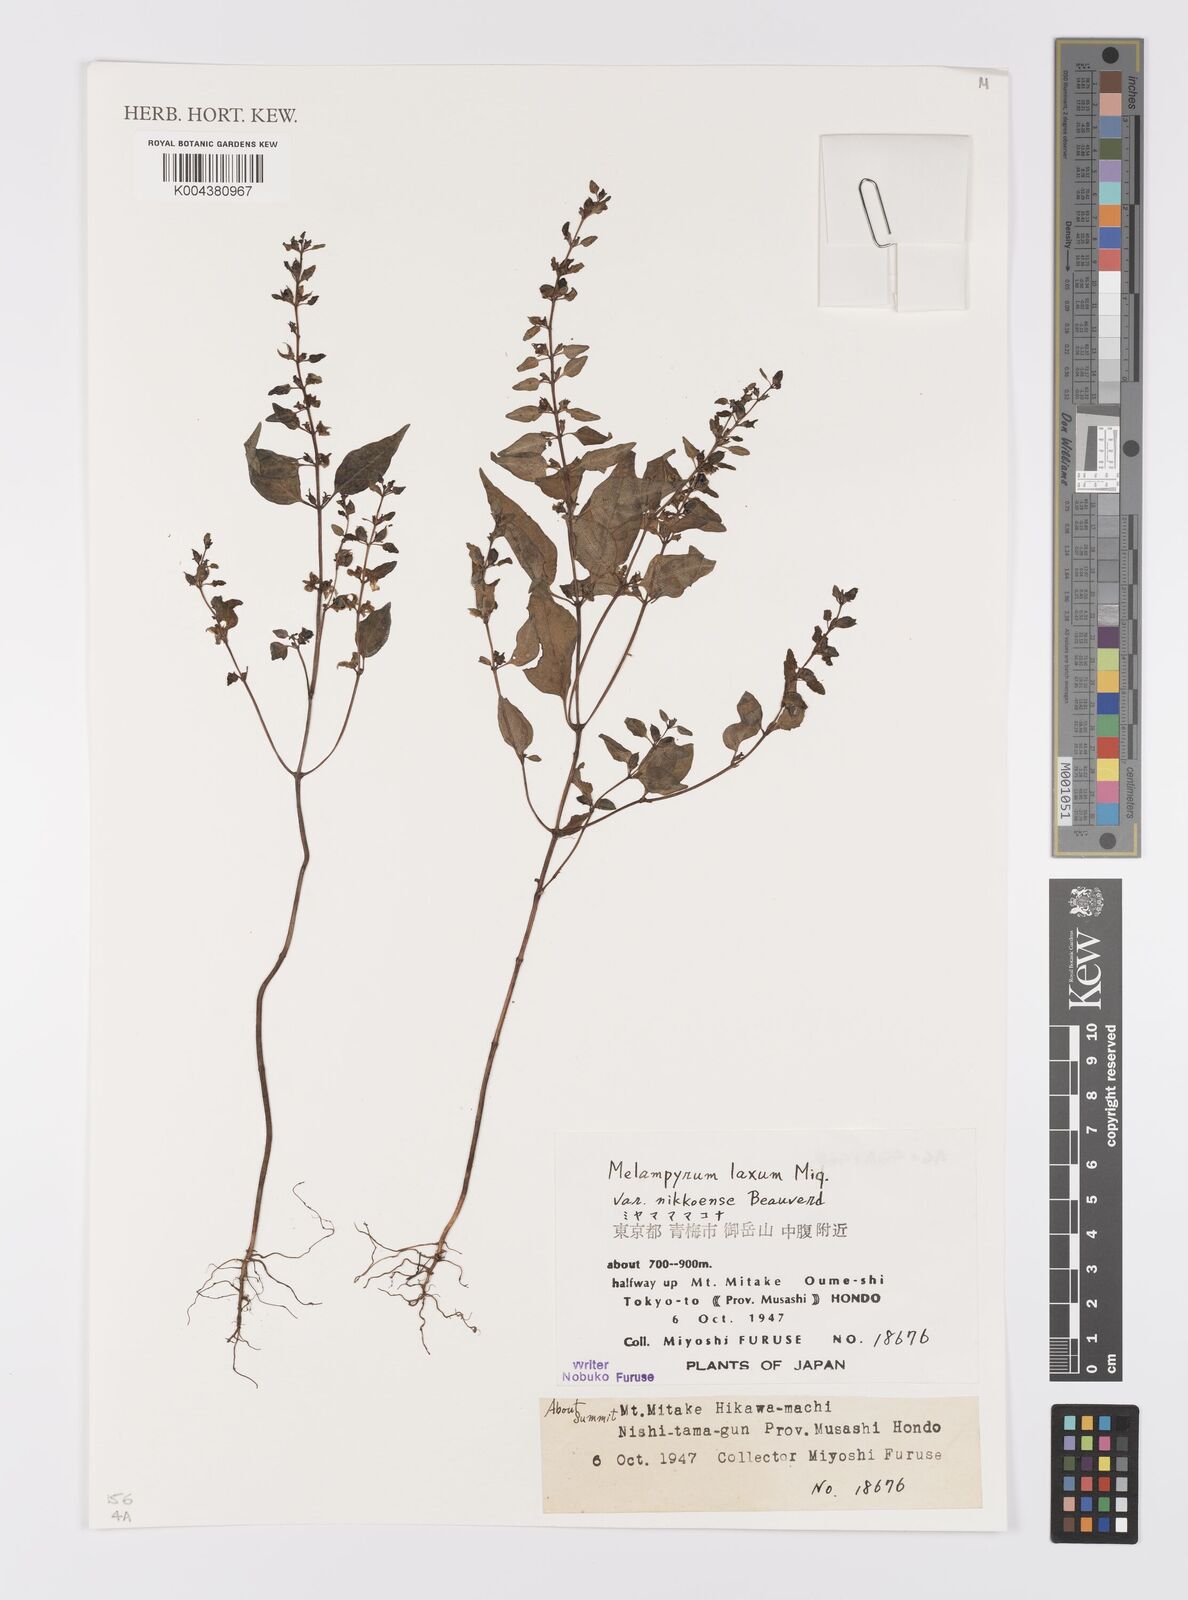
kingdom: Plantae
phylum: Tracheophyta
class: Magnoliopsida
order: Lamiales
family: Orobanchaceae
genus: Melampyrum
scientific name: Melampyrum laxum
